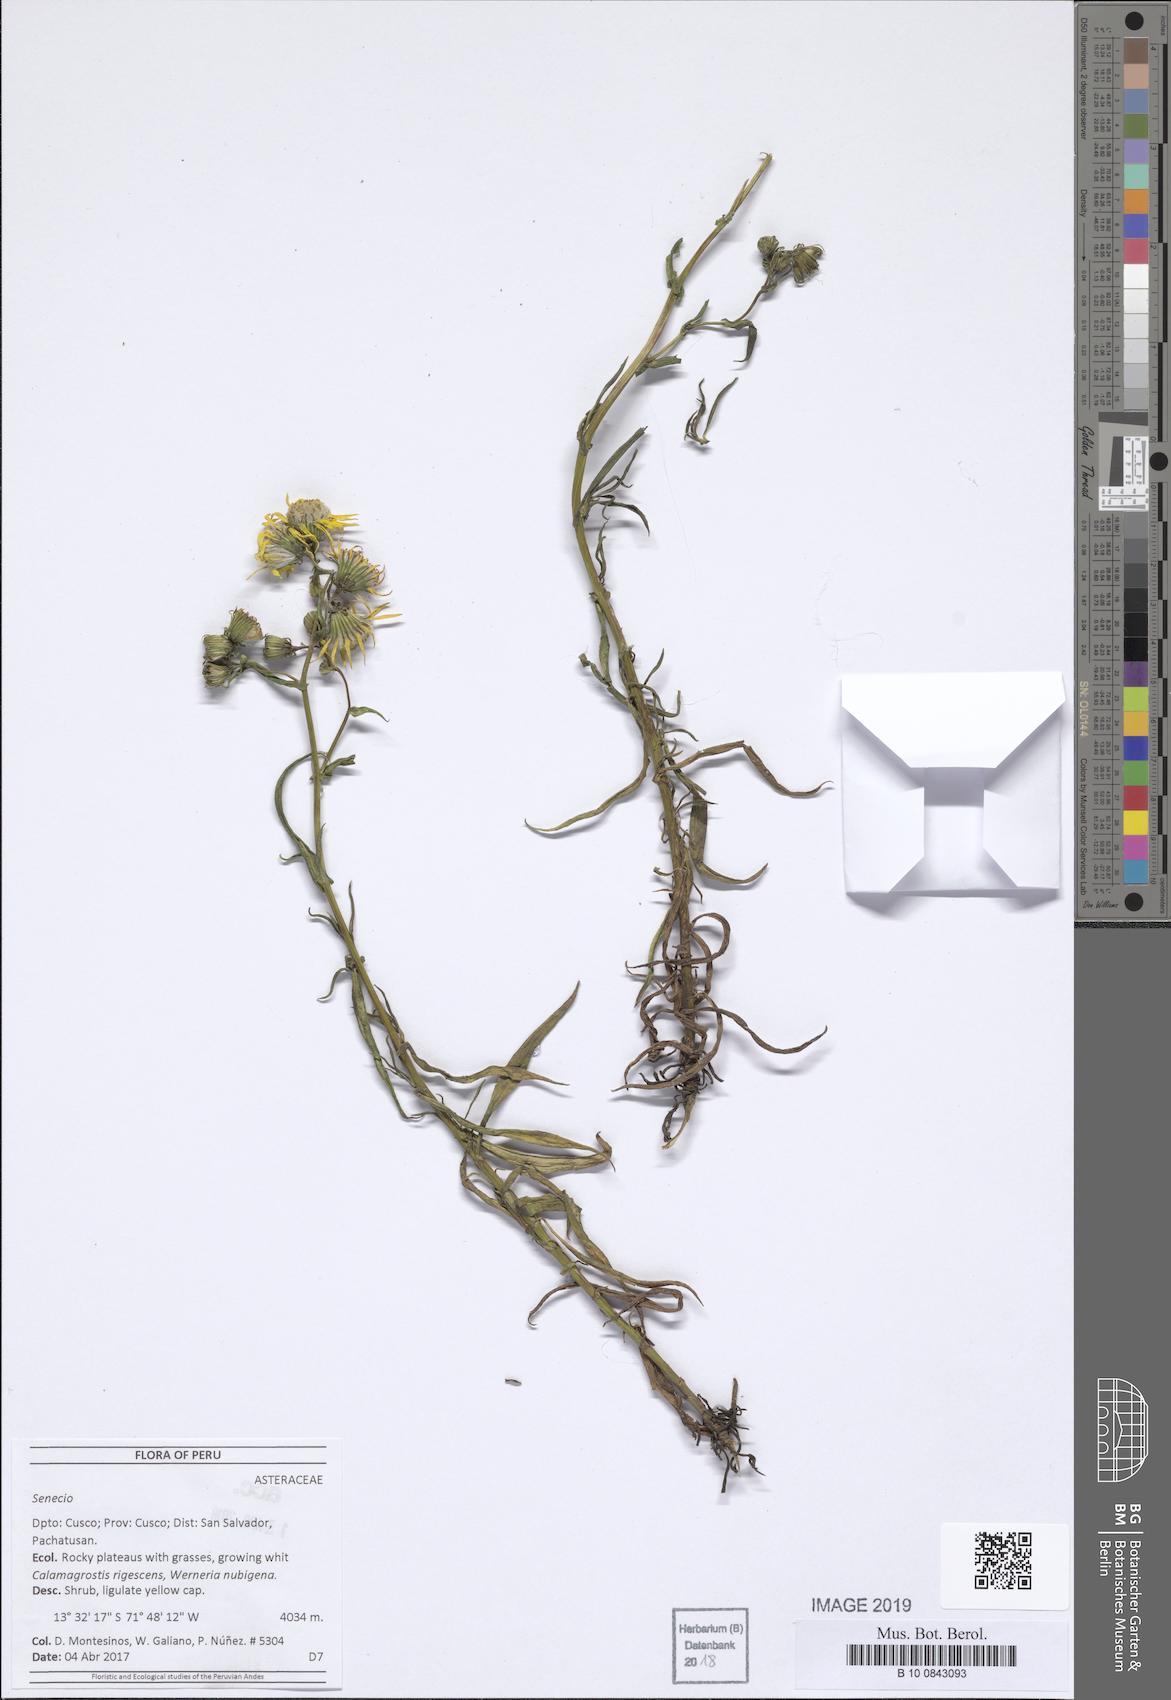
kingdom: Plantae
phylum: Tracheophyta
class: Magnoliopsida
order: Asterales
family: Asteraceae
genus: Senecio
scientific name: Senecio melanolepis
